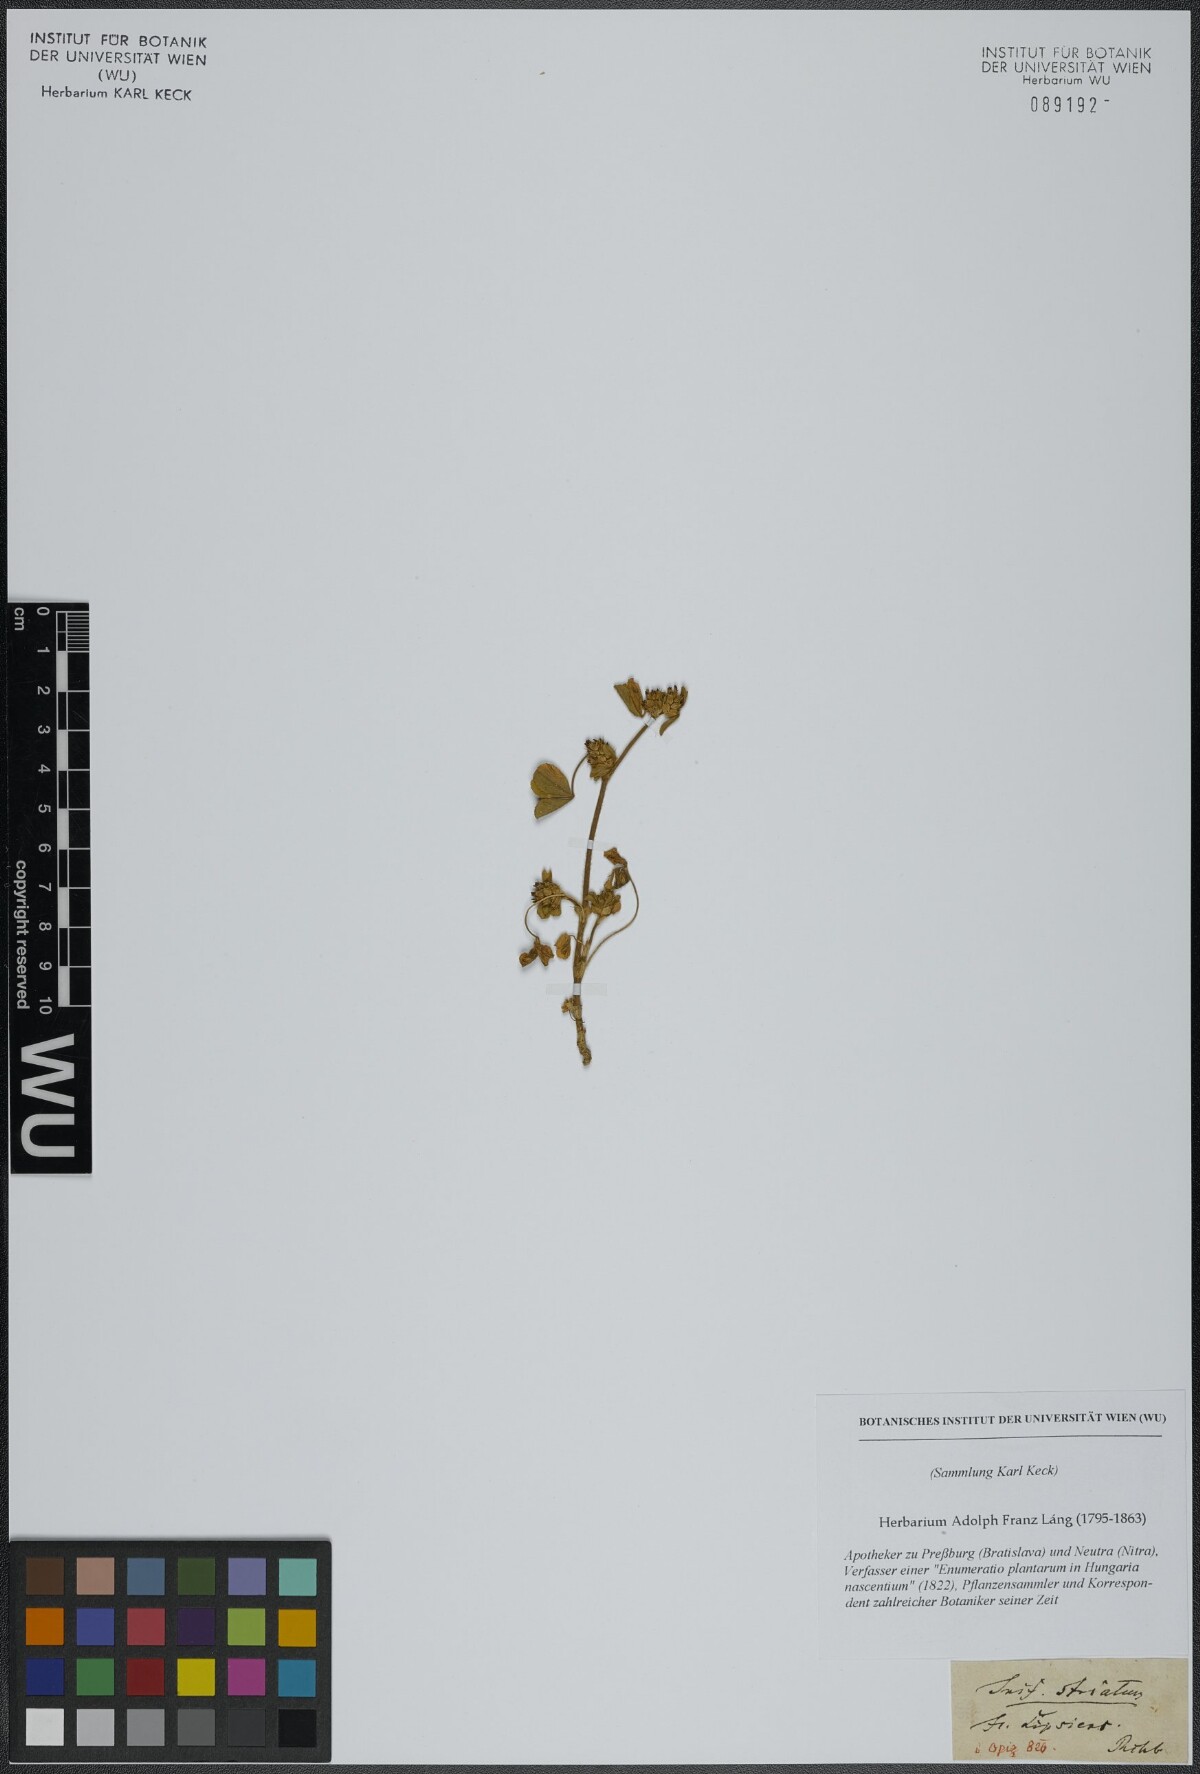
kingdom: Plantae
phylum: Tracheophyta
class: Magnoliopsida
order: Fabales
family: Fabaceae
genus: Trifolium
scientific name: Trifolium striatum
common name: Knotted clover
